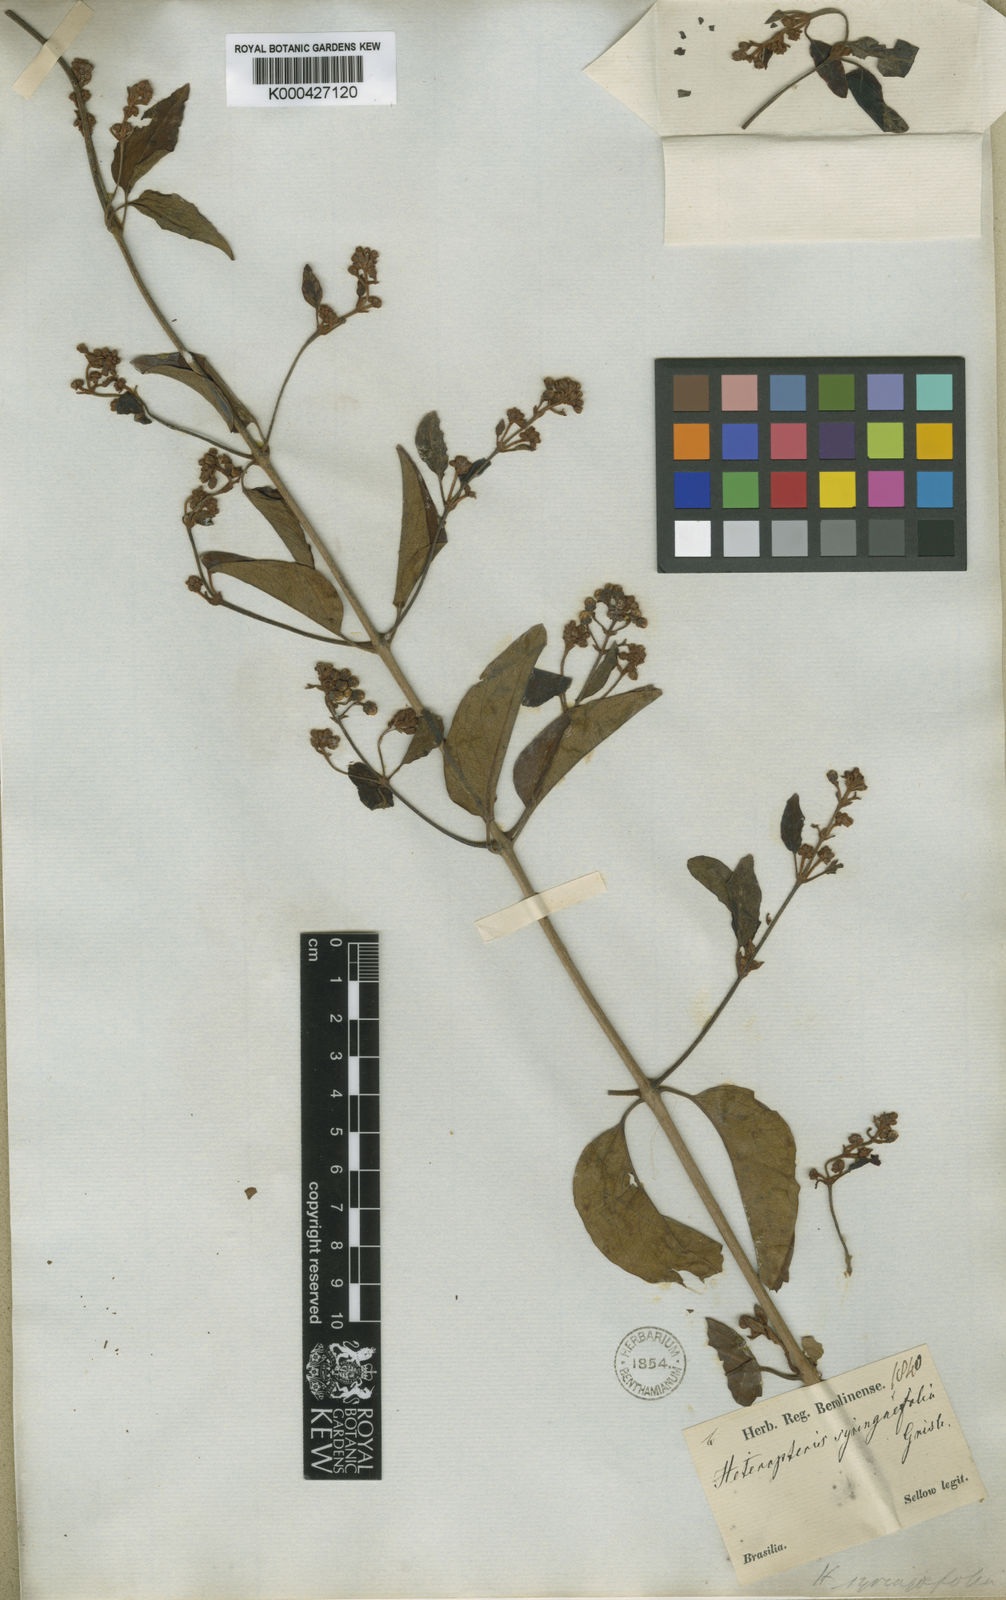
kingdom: Plantae
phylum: Tracheophyta
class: Magnoliopsida
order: Malpighiales
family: Malpighiaceae
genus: Heteropterys
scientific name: Heteropterys syringifolia
